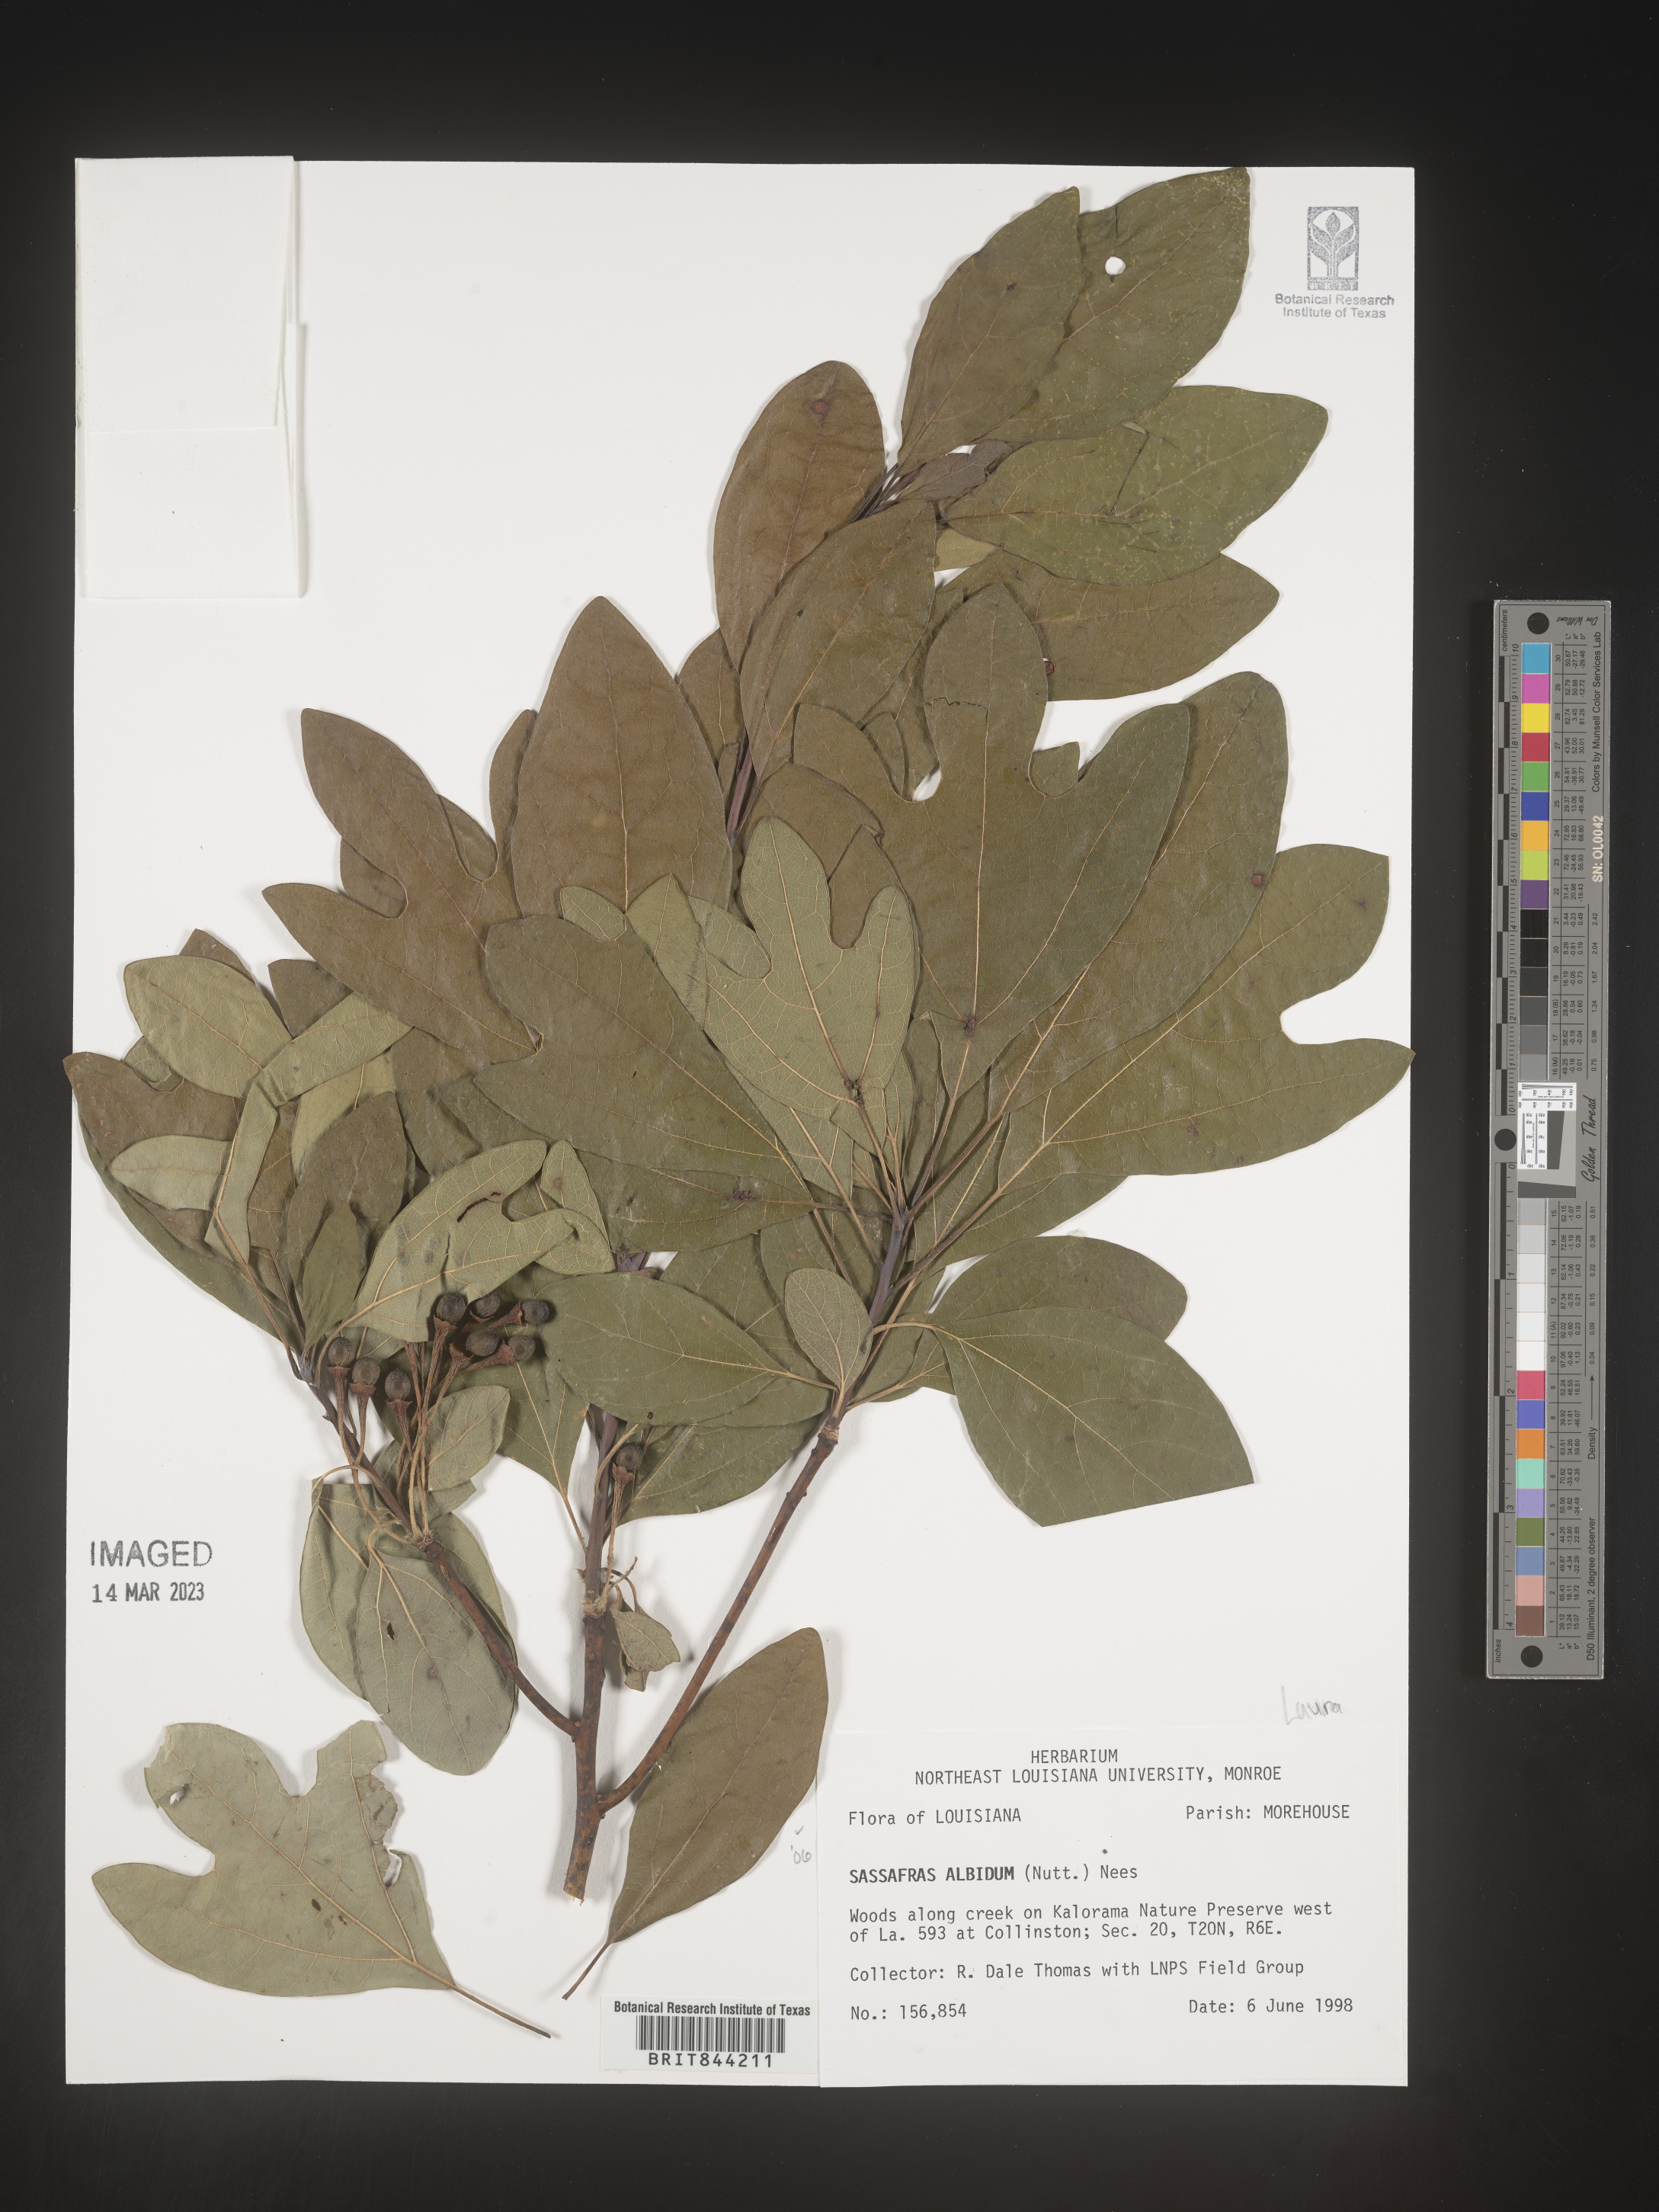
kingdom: Plantae
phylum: Tracheophyta
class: Magnoliopsida
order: Laurales
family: Lauraceae
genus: Sassafras
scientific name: Sassafras albidum
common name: Sassafras
